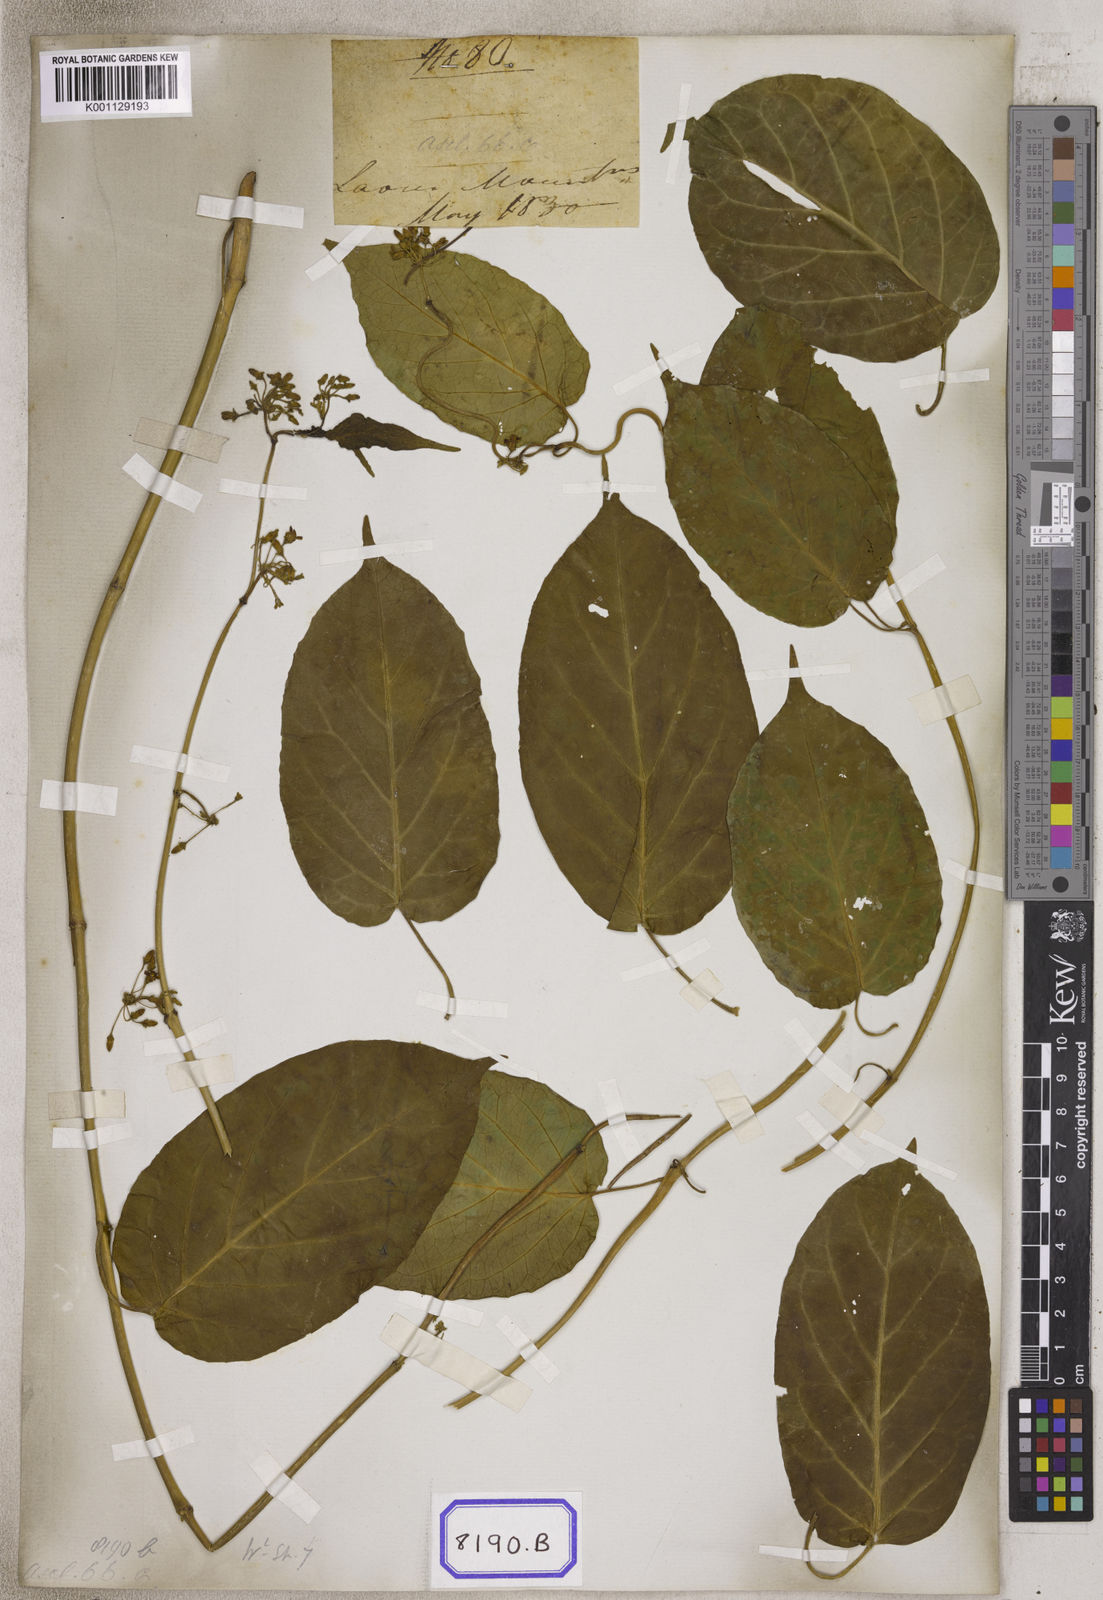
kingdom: Plantae
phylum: Tracheophyta
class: Magnoliopsida
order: Gentianales
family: Apocynaceae
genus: Gymnema
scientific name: Gymnema inodorum
